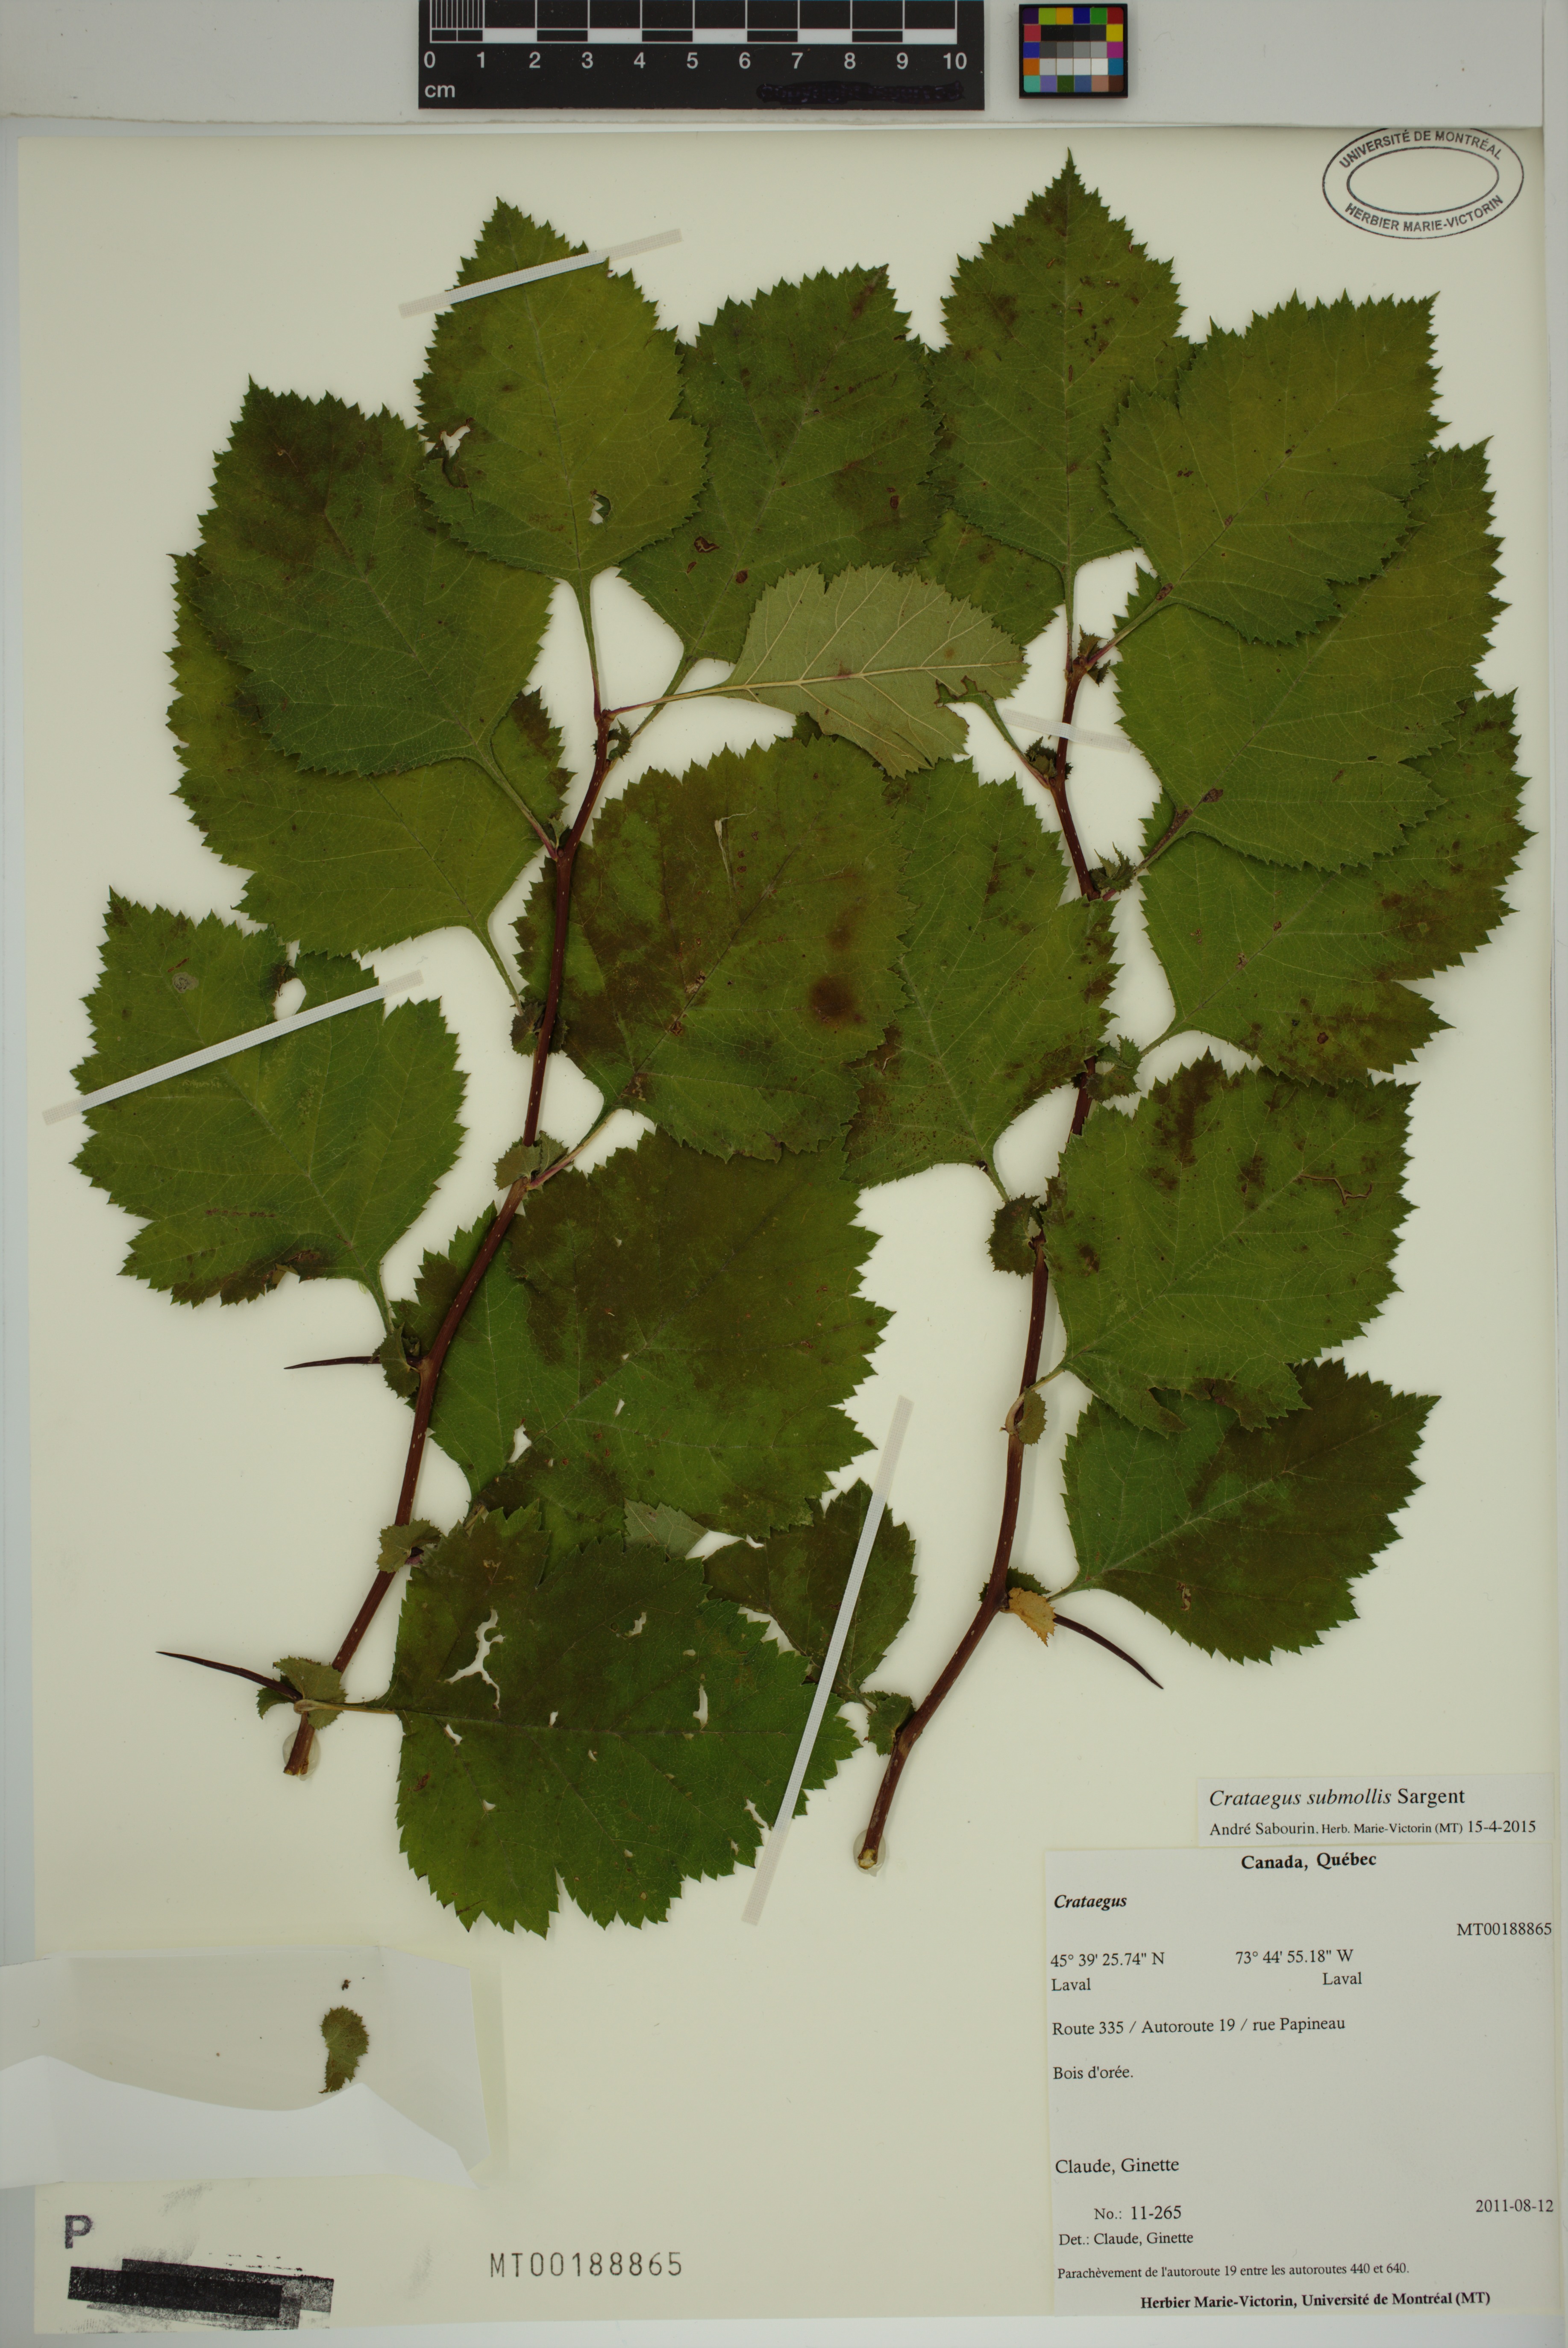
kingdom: Plantae
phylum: Tracheophyta
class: Magnoliopsida
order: Rosales
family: Rosaceae
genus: Crataegus
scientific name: Crataegus submollis
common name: Hairy cockspurthorn
